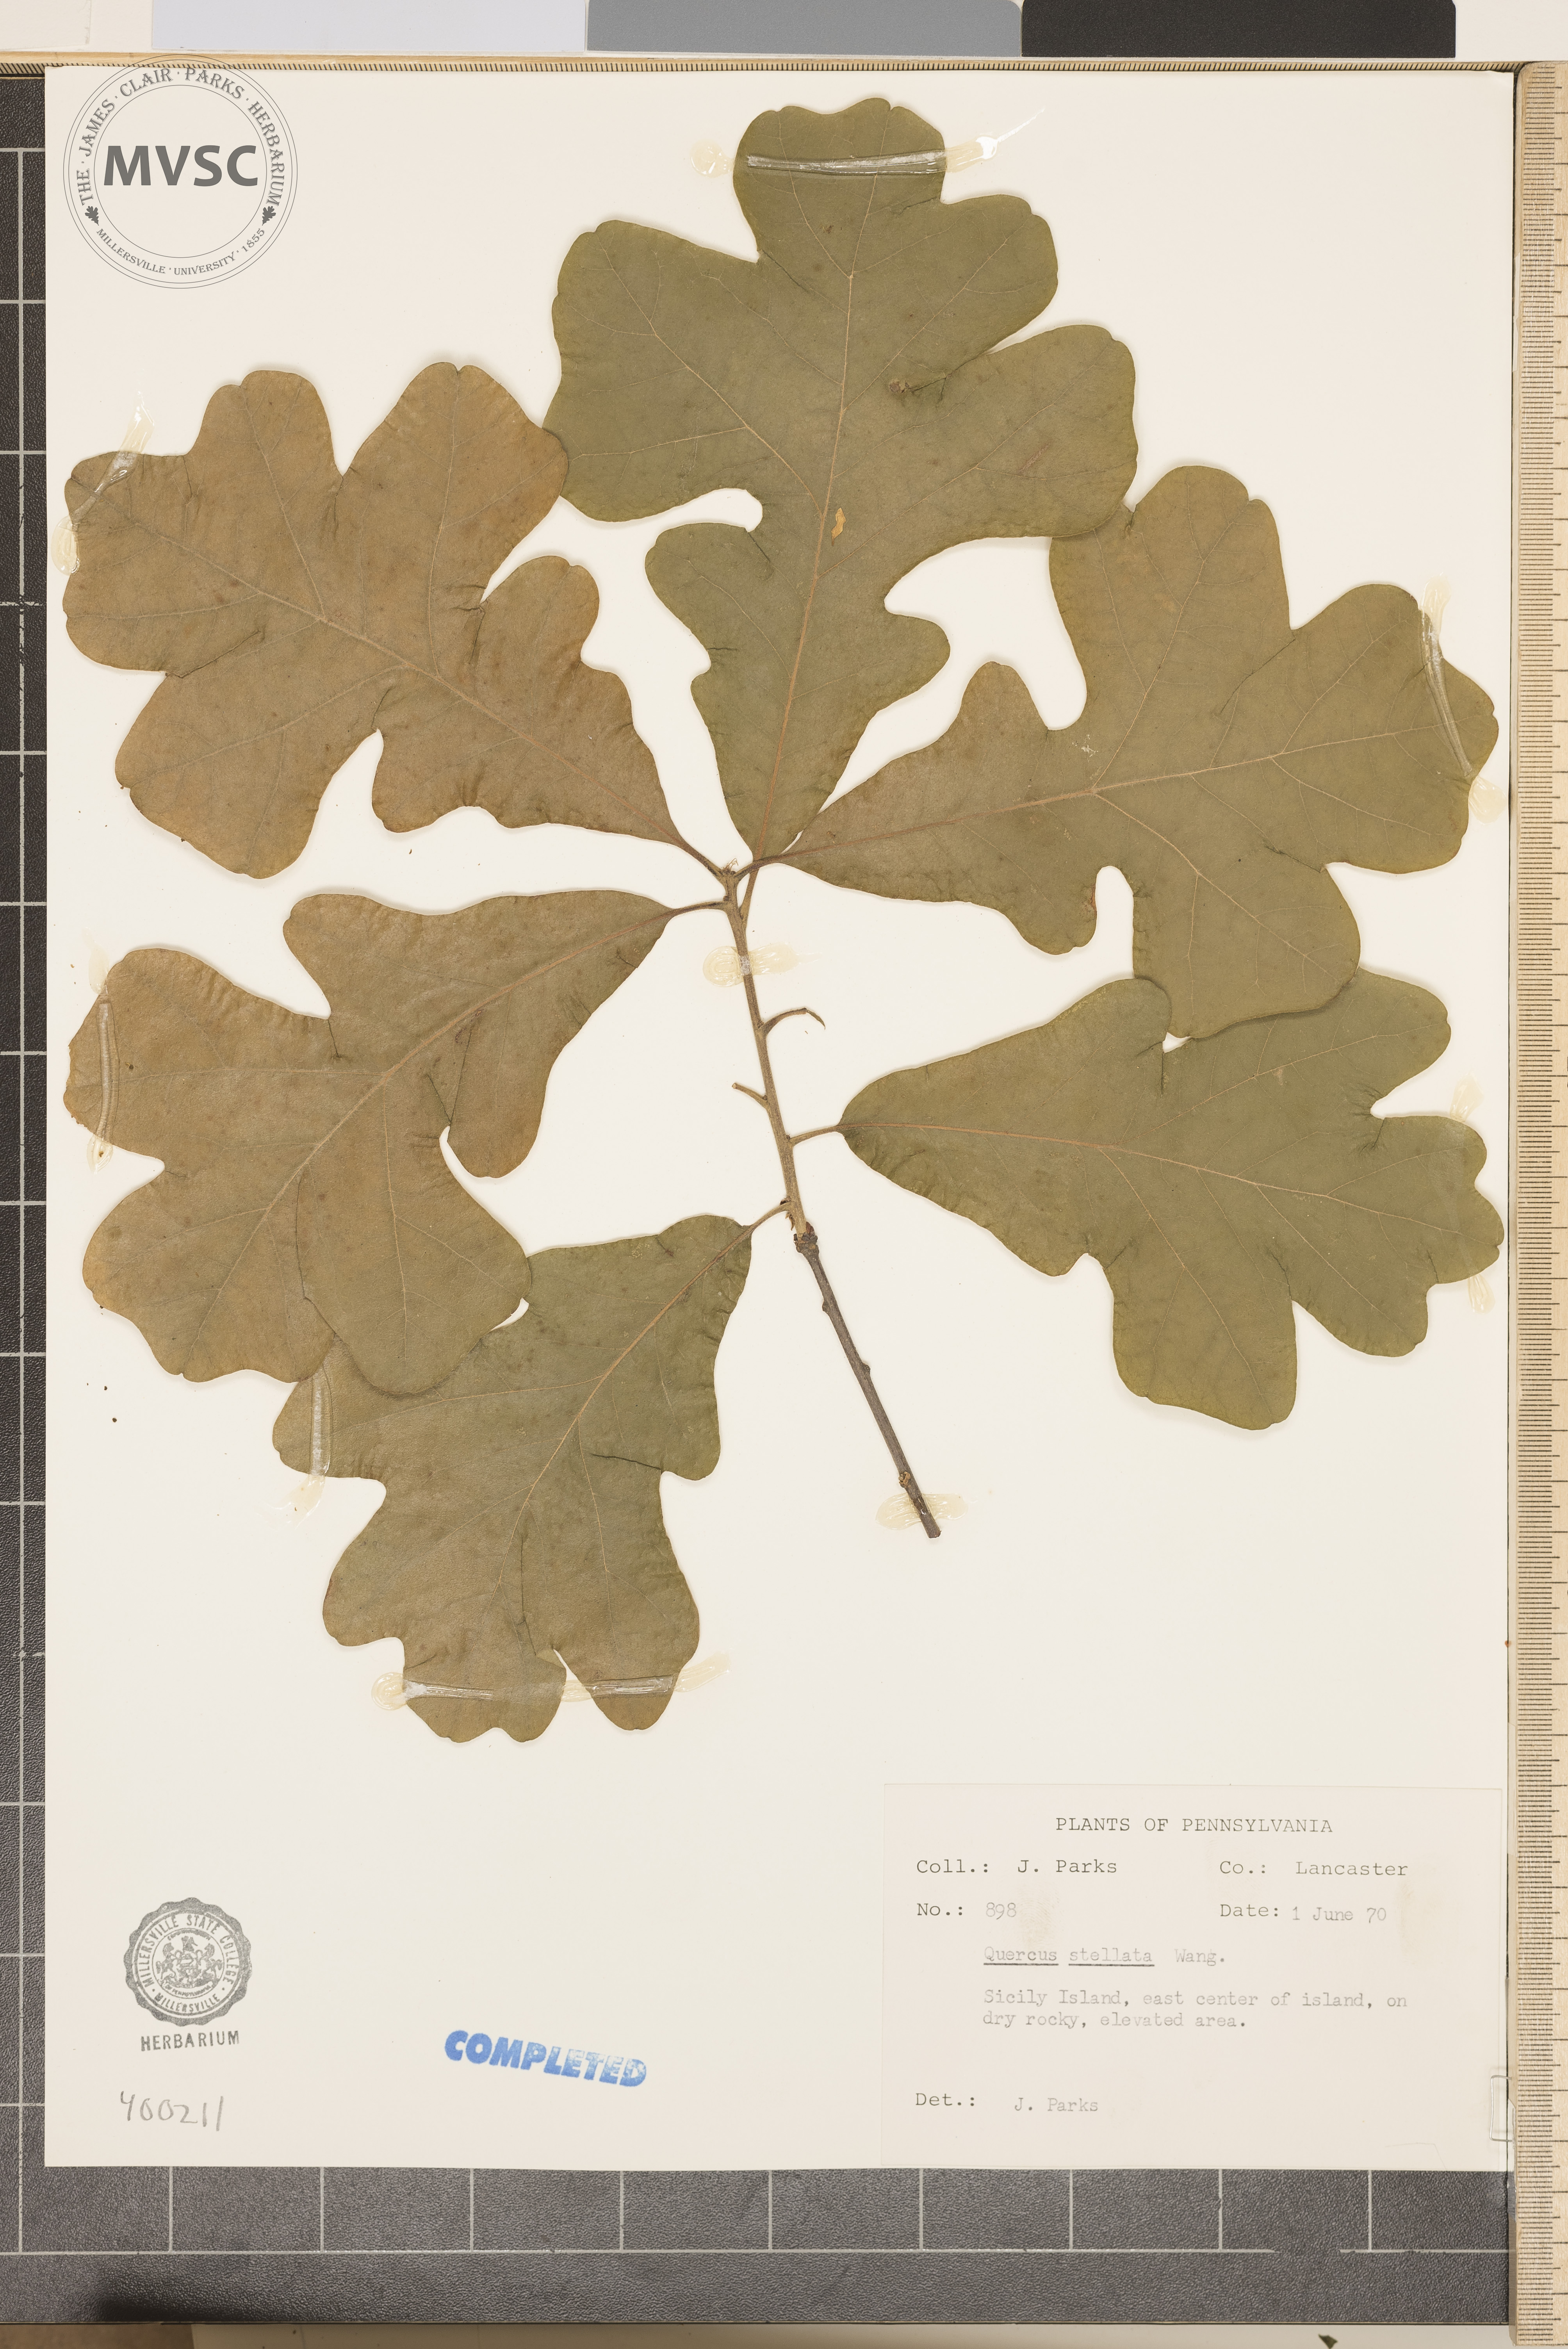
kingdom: Plantae
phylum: Tracheophyta
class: Magnoliopsida
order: Fagales
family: Fagaceae
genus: Quercus
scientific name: Quercus stellata
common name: Post oak
